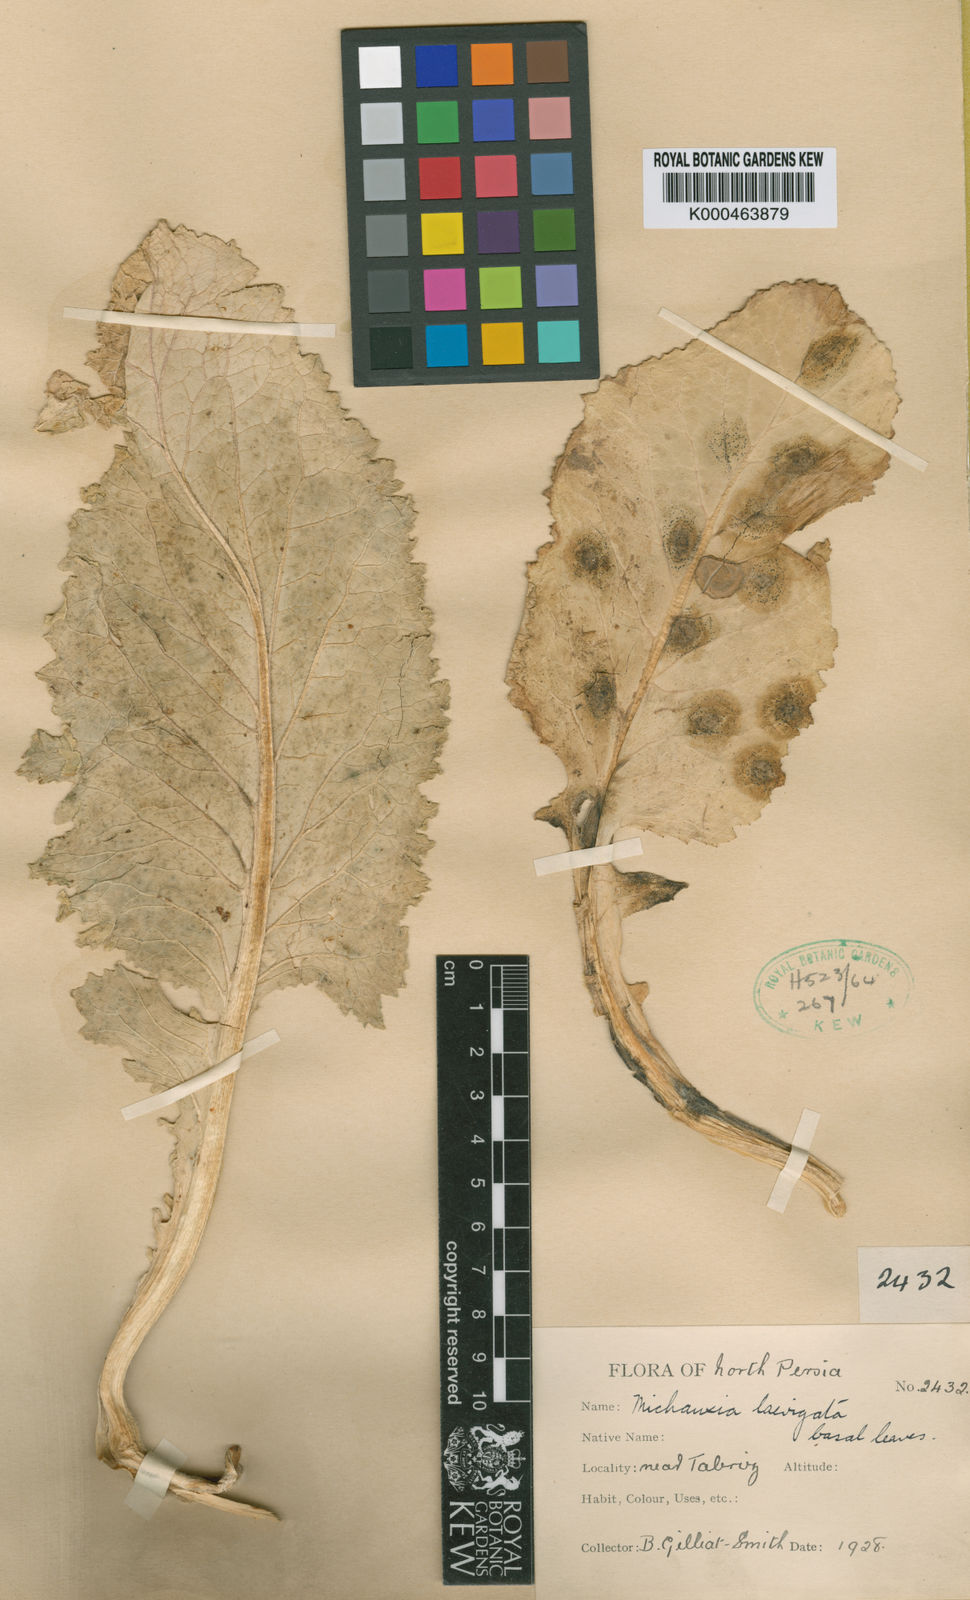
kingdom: Plantae
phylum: Tracheophyta
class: Magnoliopsida
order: Asterales
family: Campanulaceae
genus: Michauxia
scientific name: Michauxia laevigata
